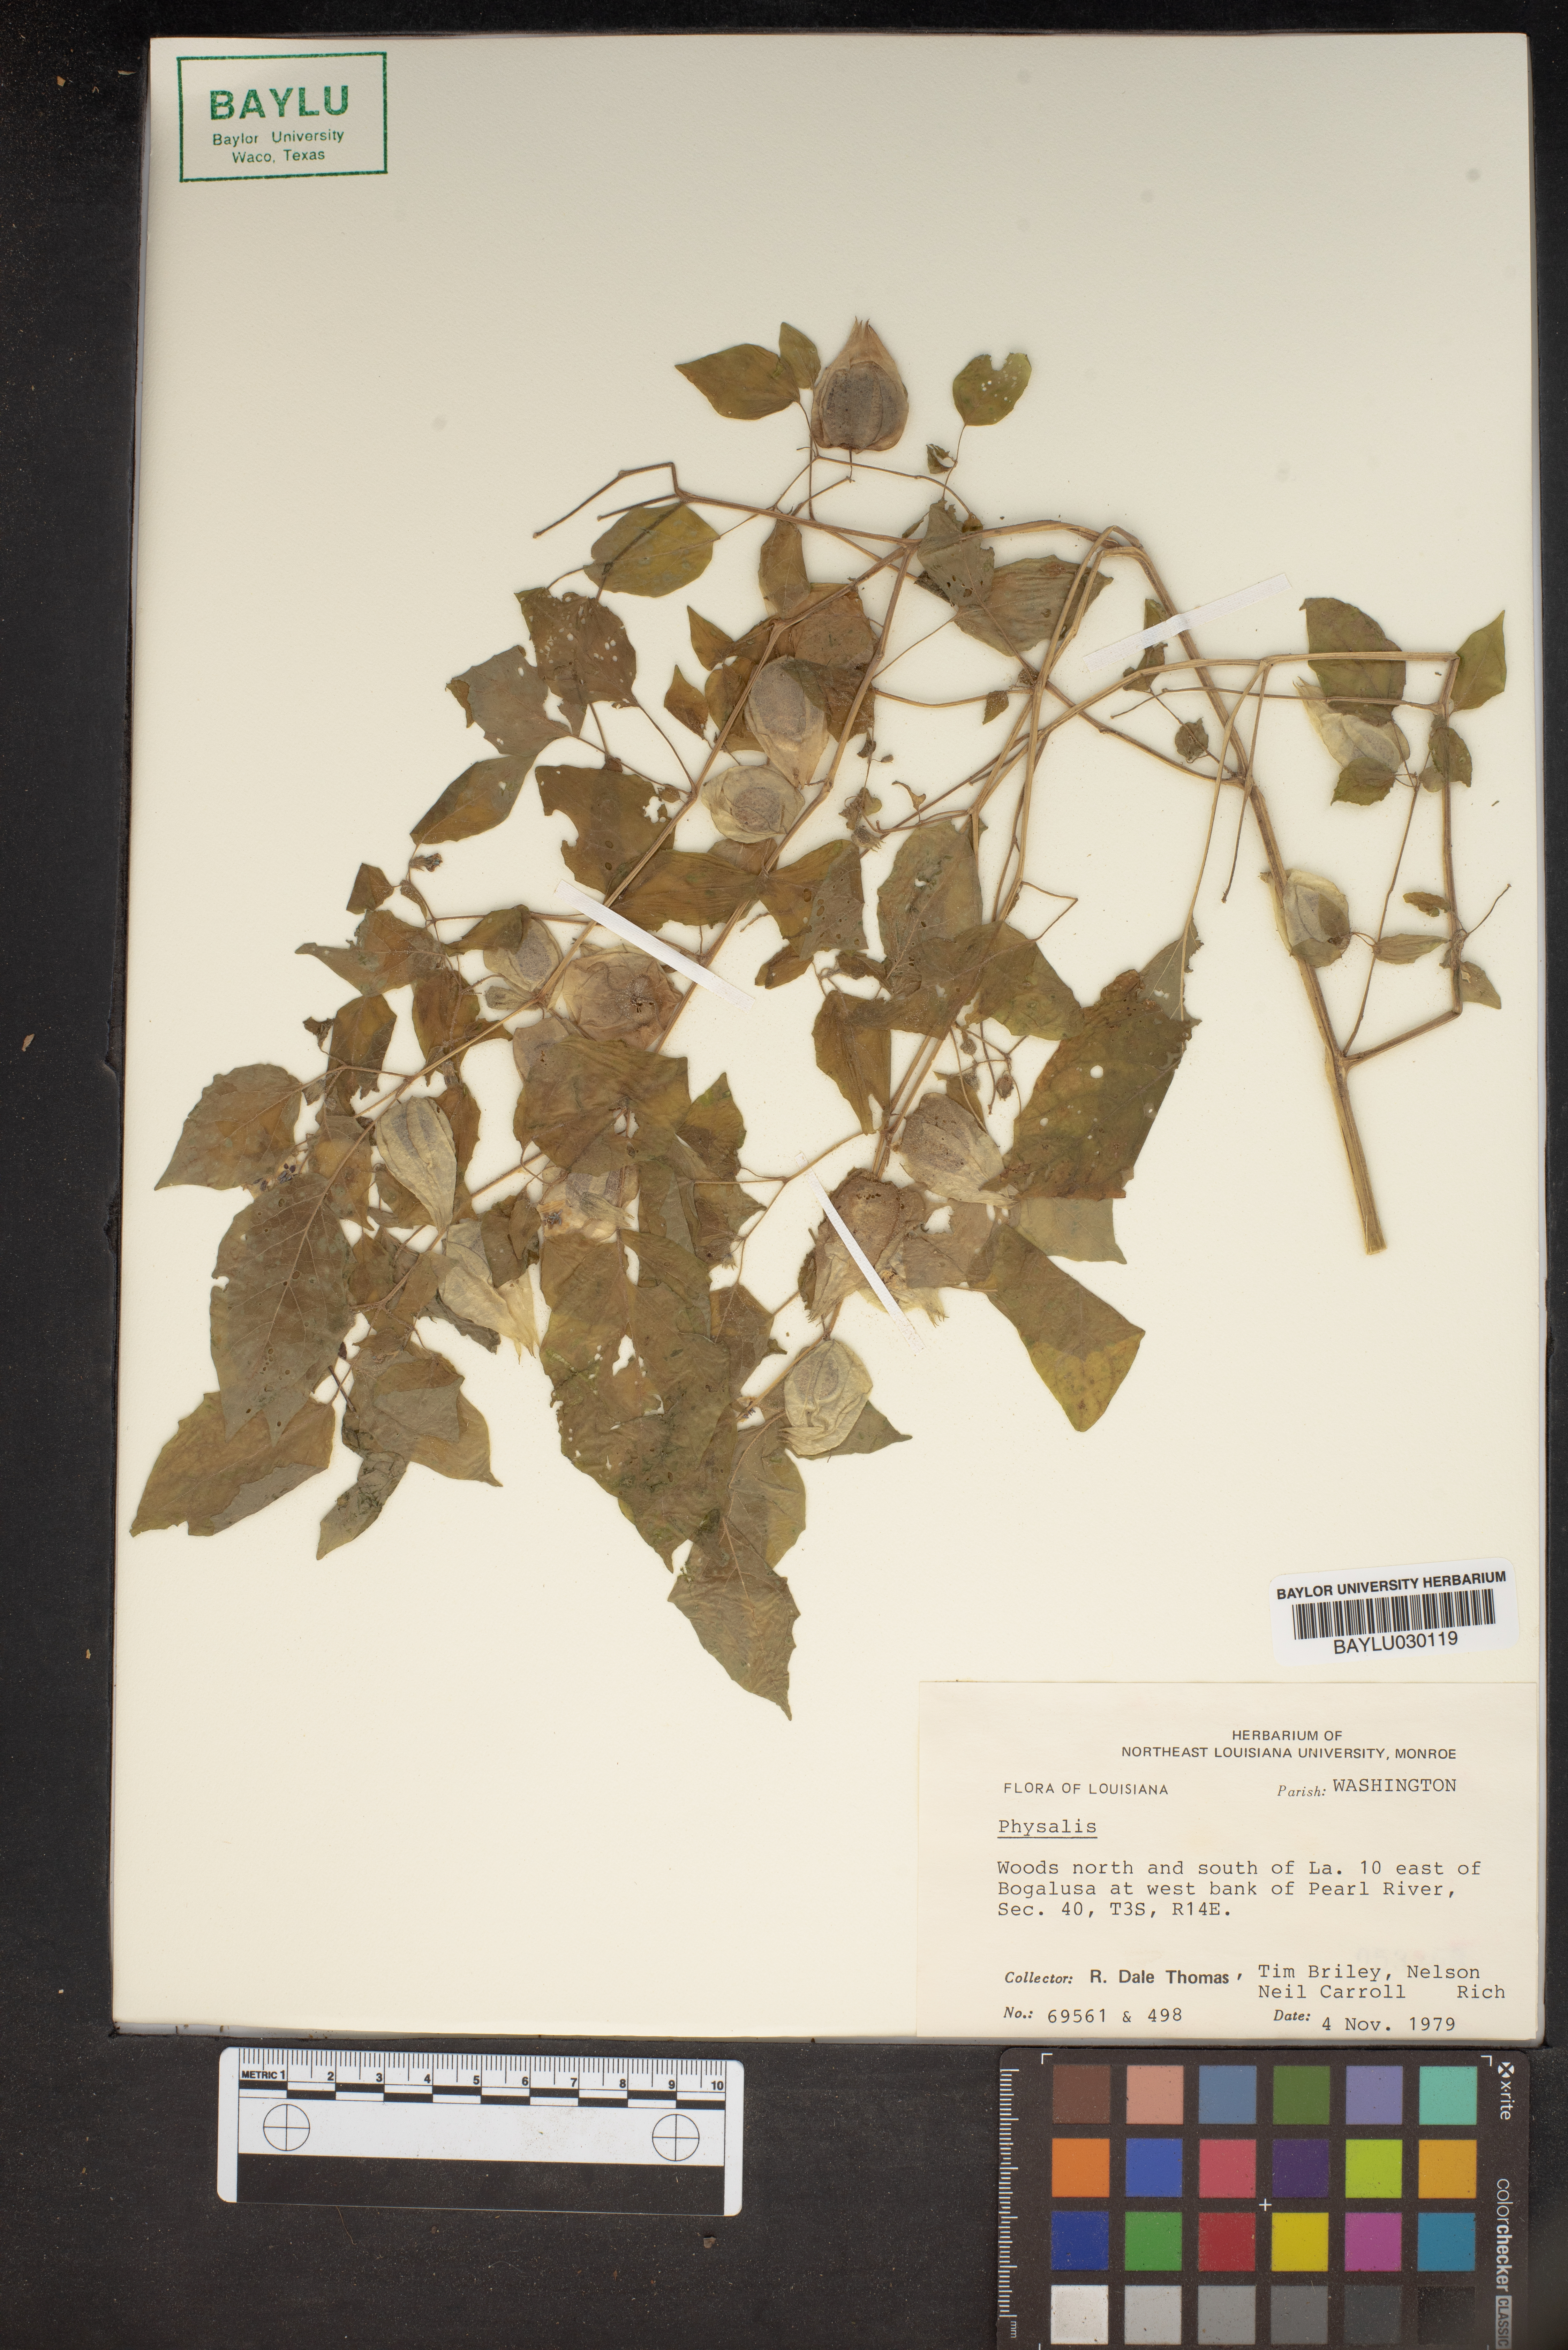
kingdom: Plantae
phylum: Tracheophyta
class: Magnoliopsida
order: Solanales
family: Solanaceae
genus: Physalis
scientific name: Physalis
